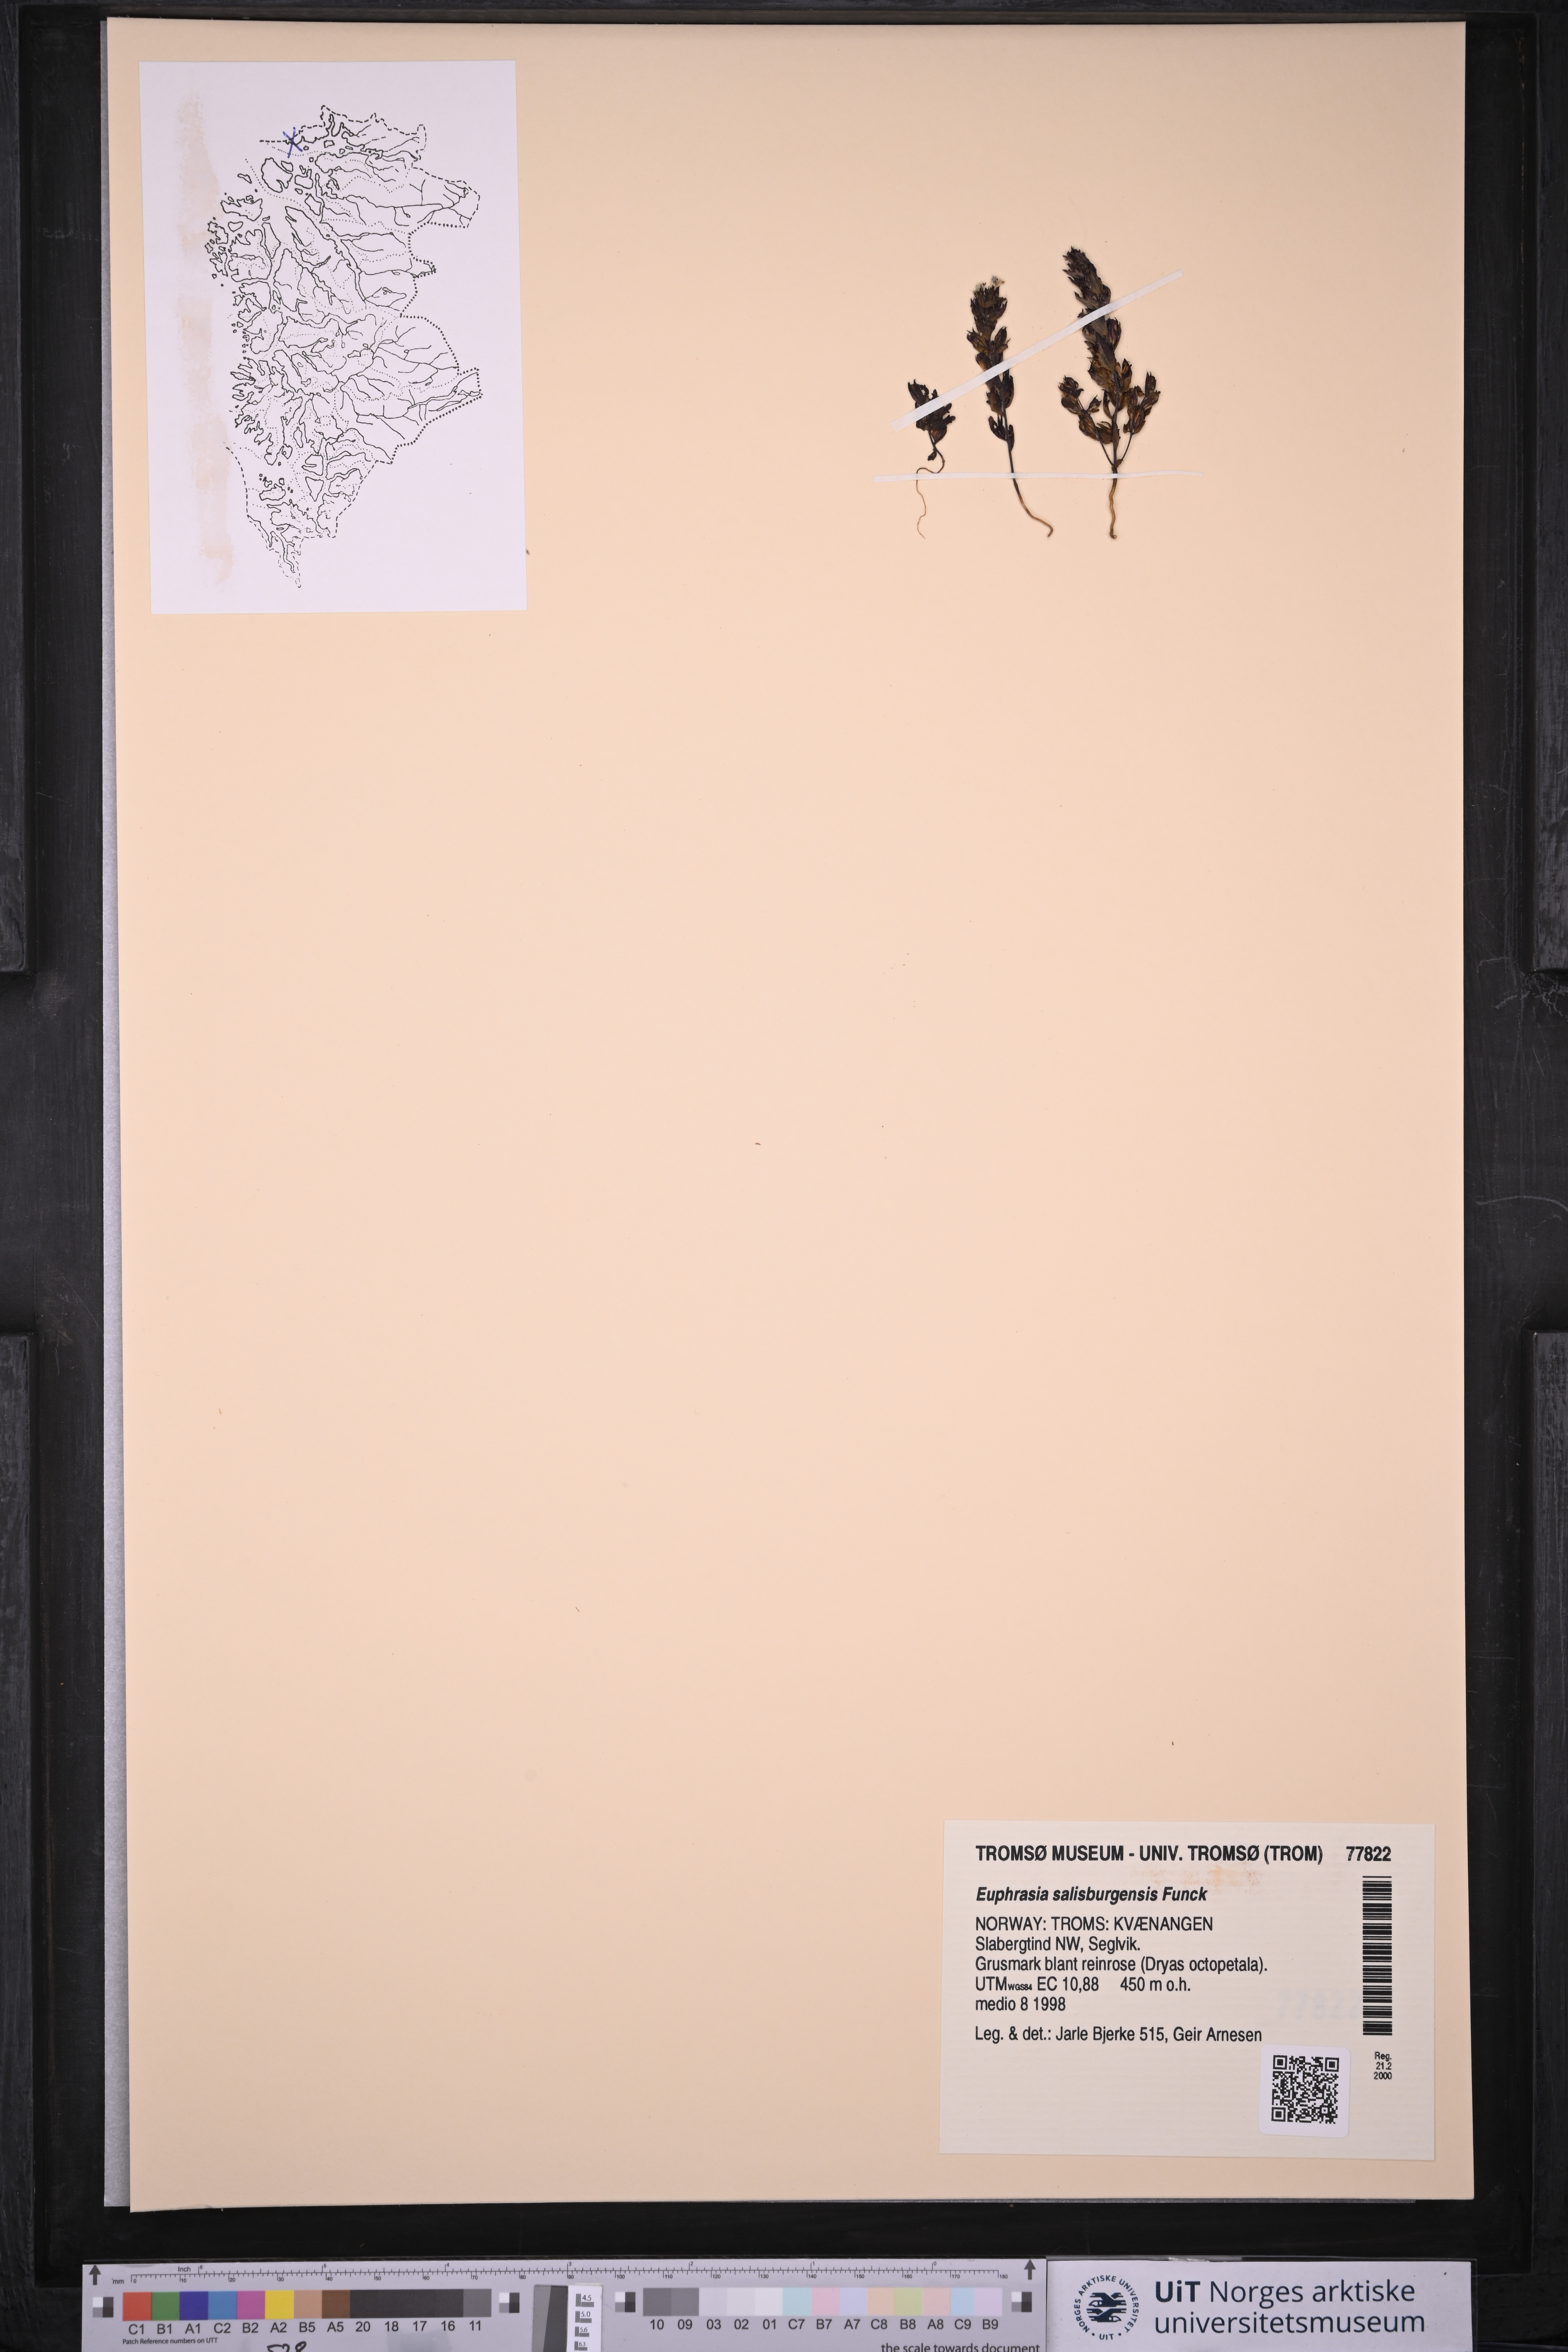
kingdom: Plantae
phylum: Tracheophyta
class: Magnoliopsida
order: Lamiales
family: Orobanchaceae
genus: Euphrasia
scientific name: Euphrasia salisburgensis
